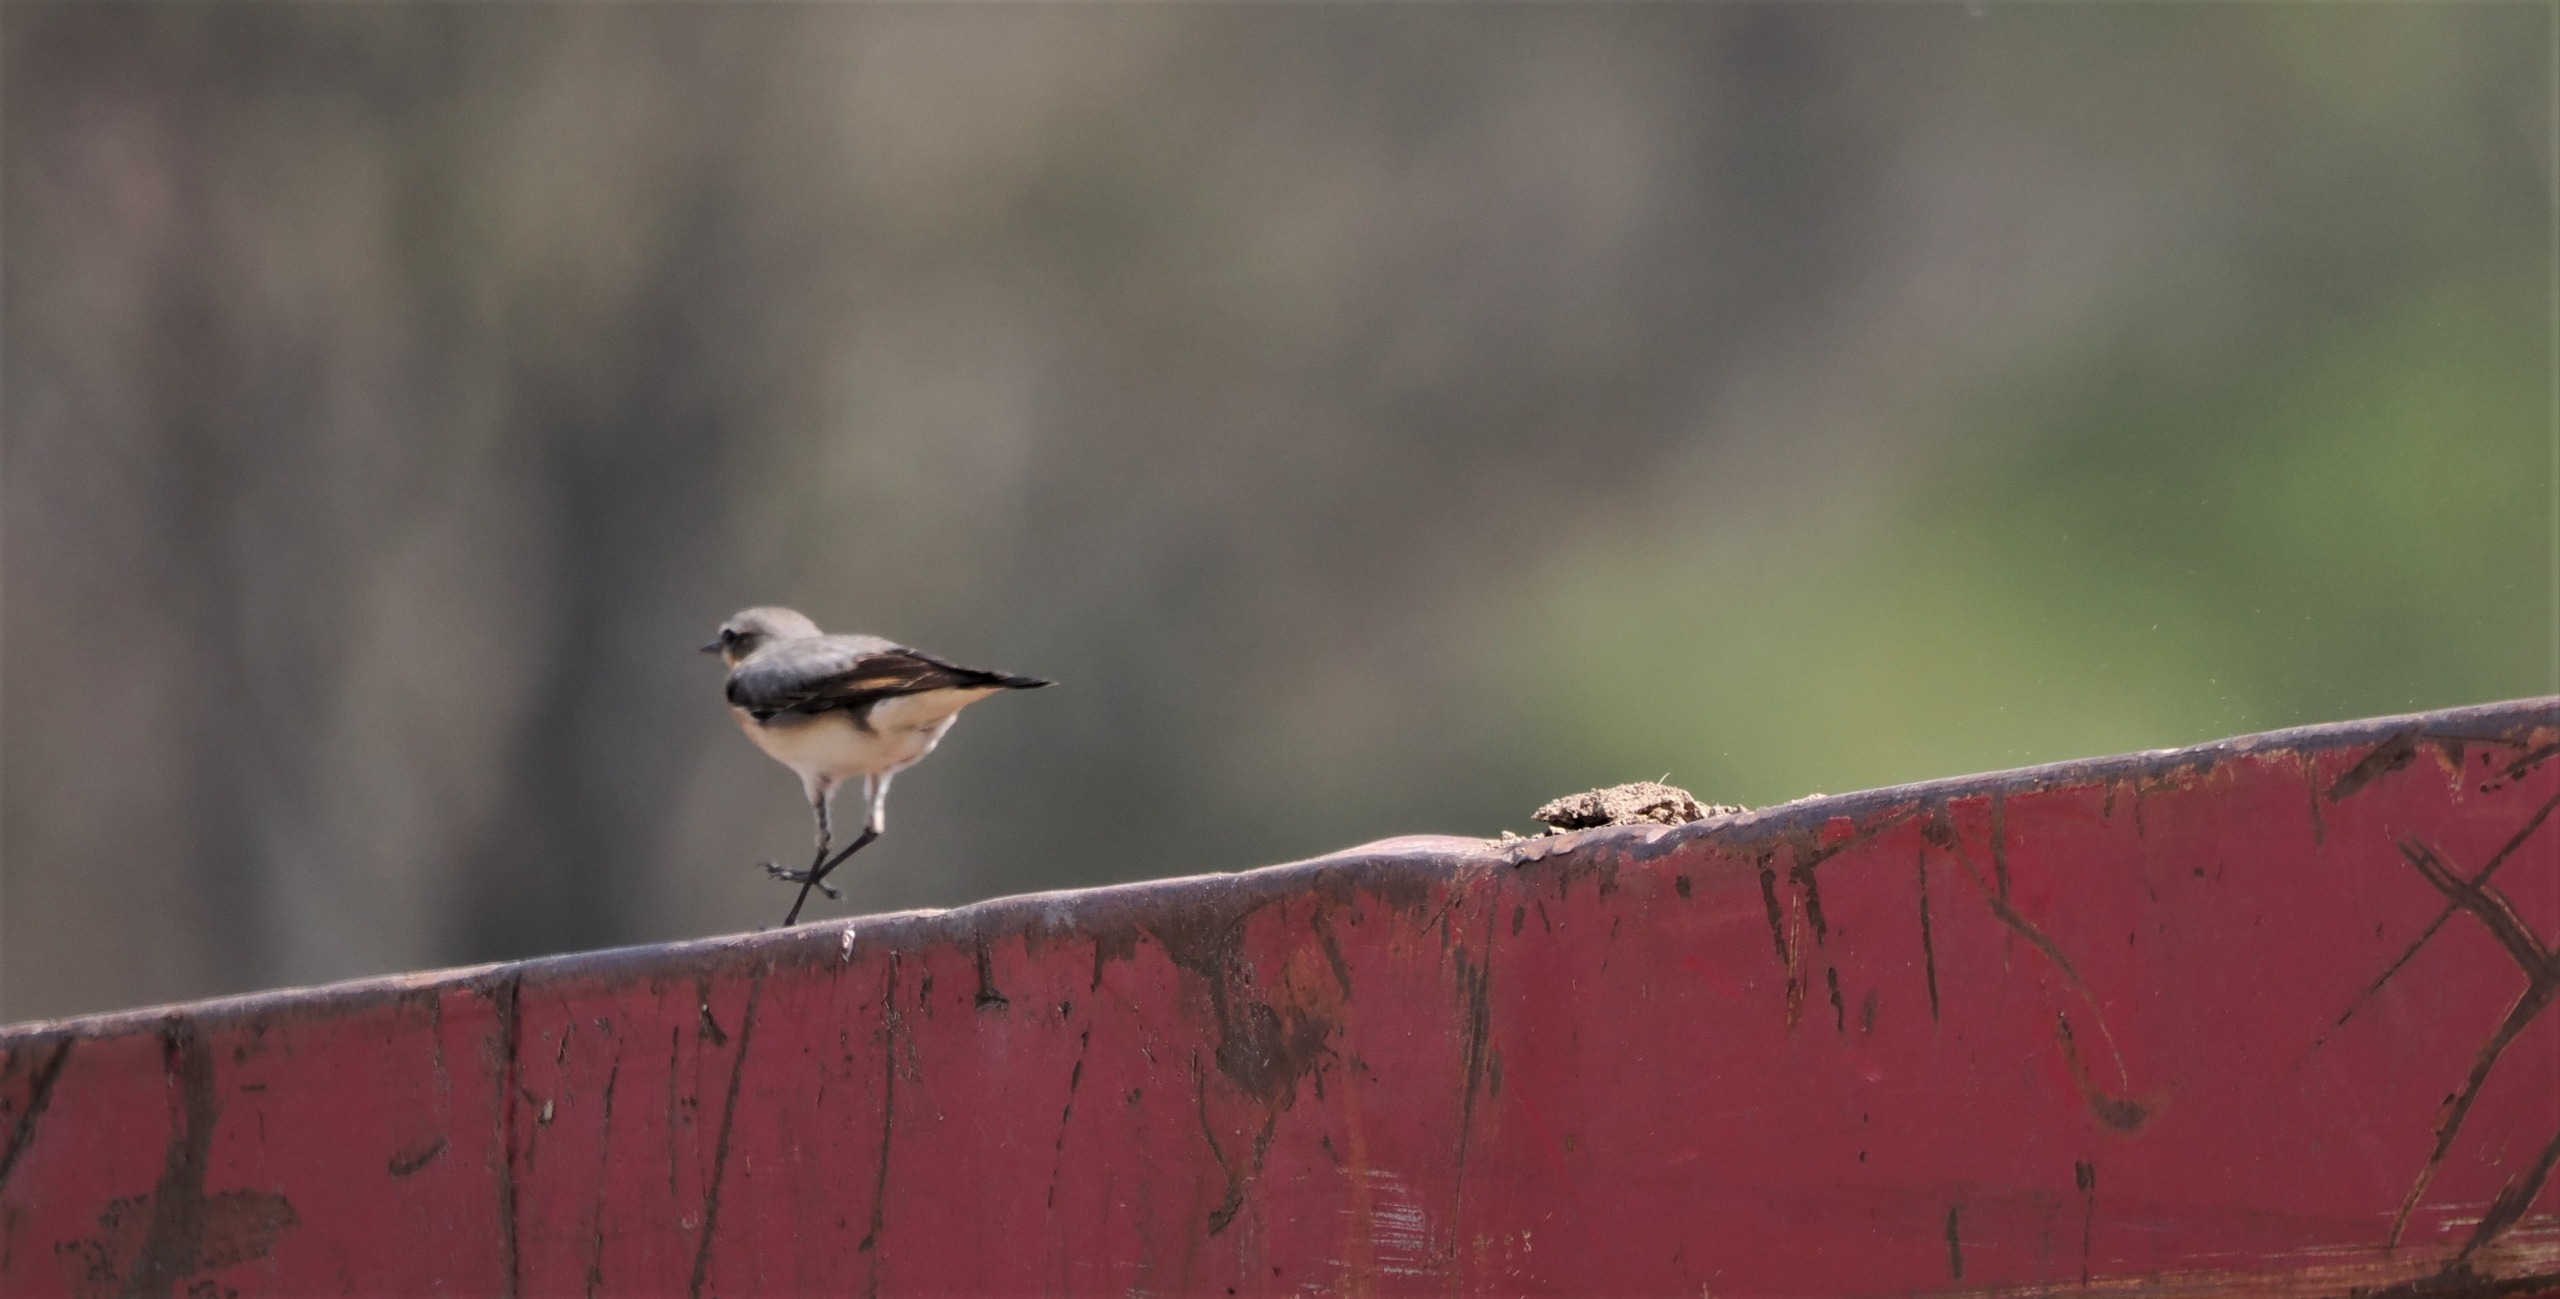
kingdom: Animalia
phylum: Chordata
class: Aves
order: Passeriformes
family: Muscicapidae
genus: Oenanthe
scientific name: Oenanthe oenanthe
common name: Stenpikker
